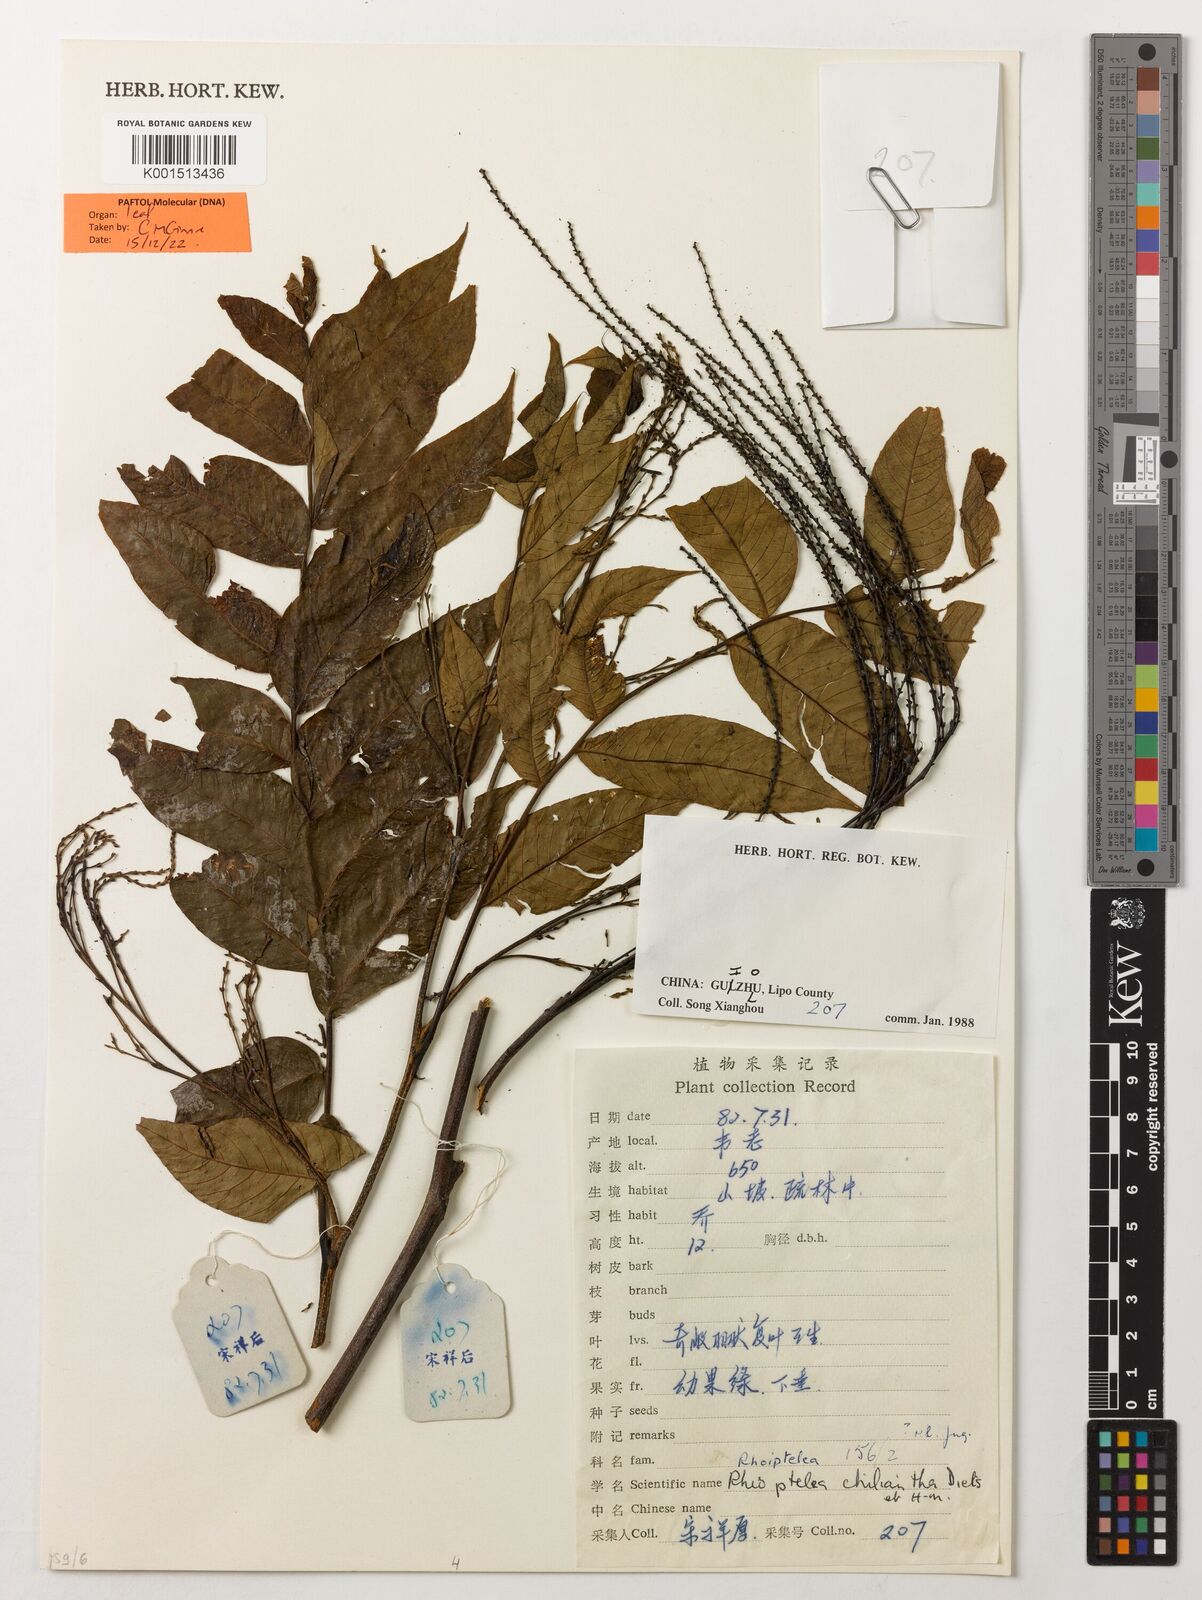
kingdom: Plantae
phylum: Tracheophyta
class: Magnoliopsida
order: Fagales
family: Juglandaceae
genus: Rhoiptelea
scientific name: Rhoiptelea chiliantha
